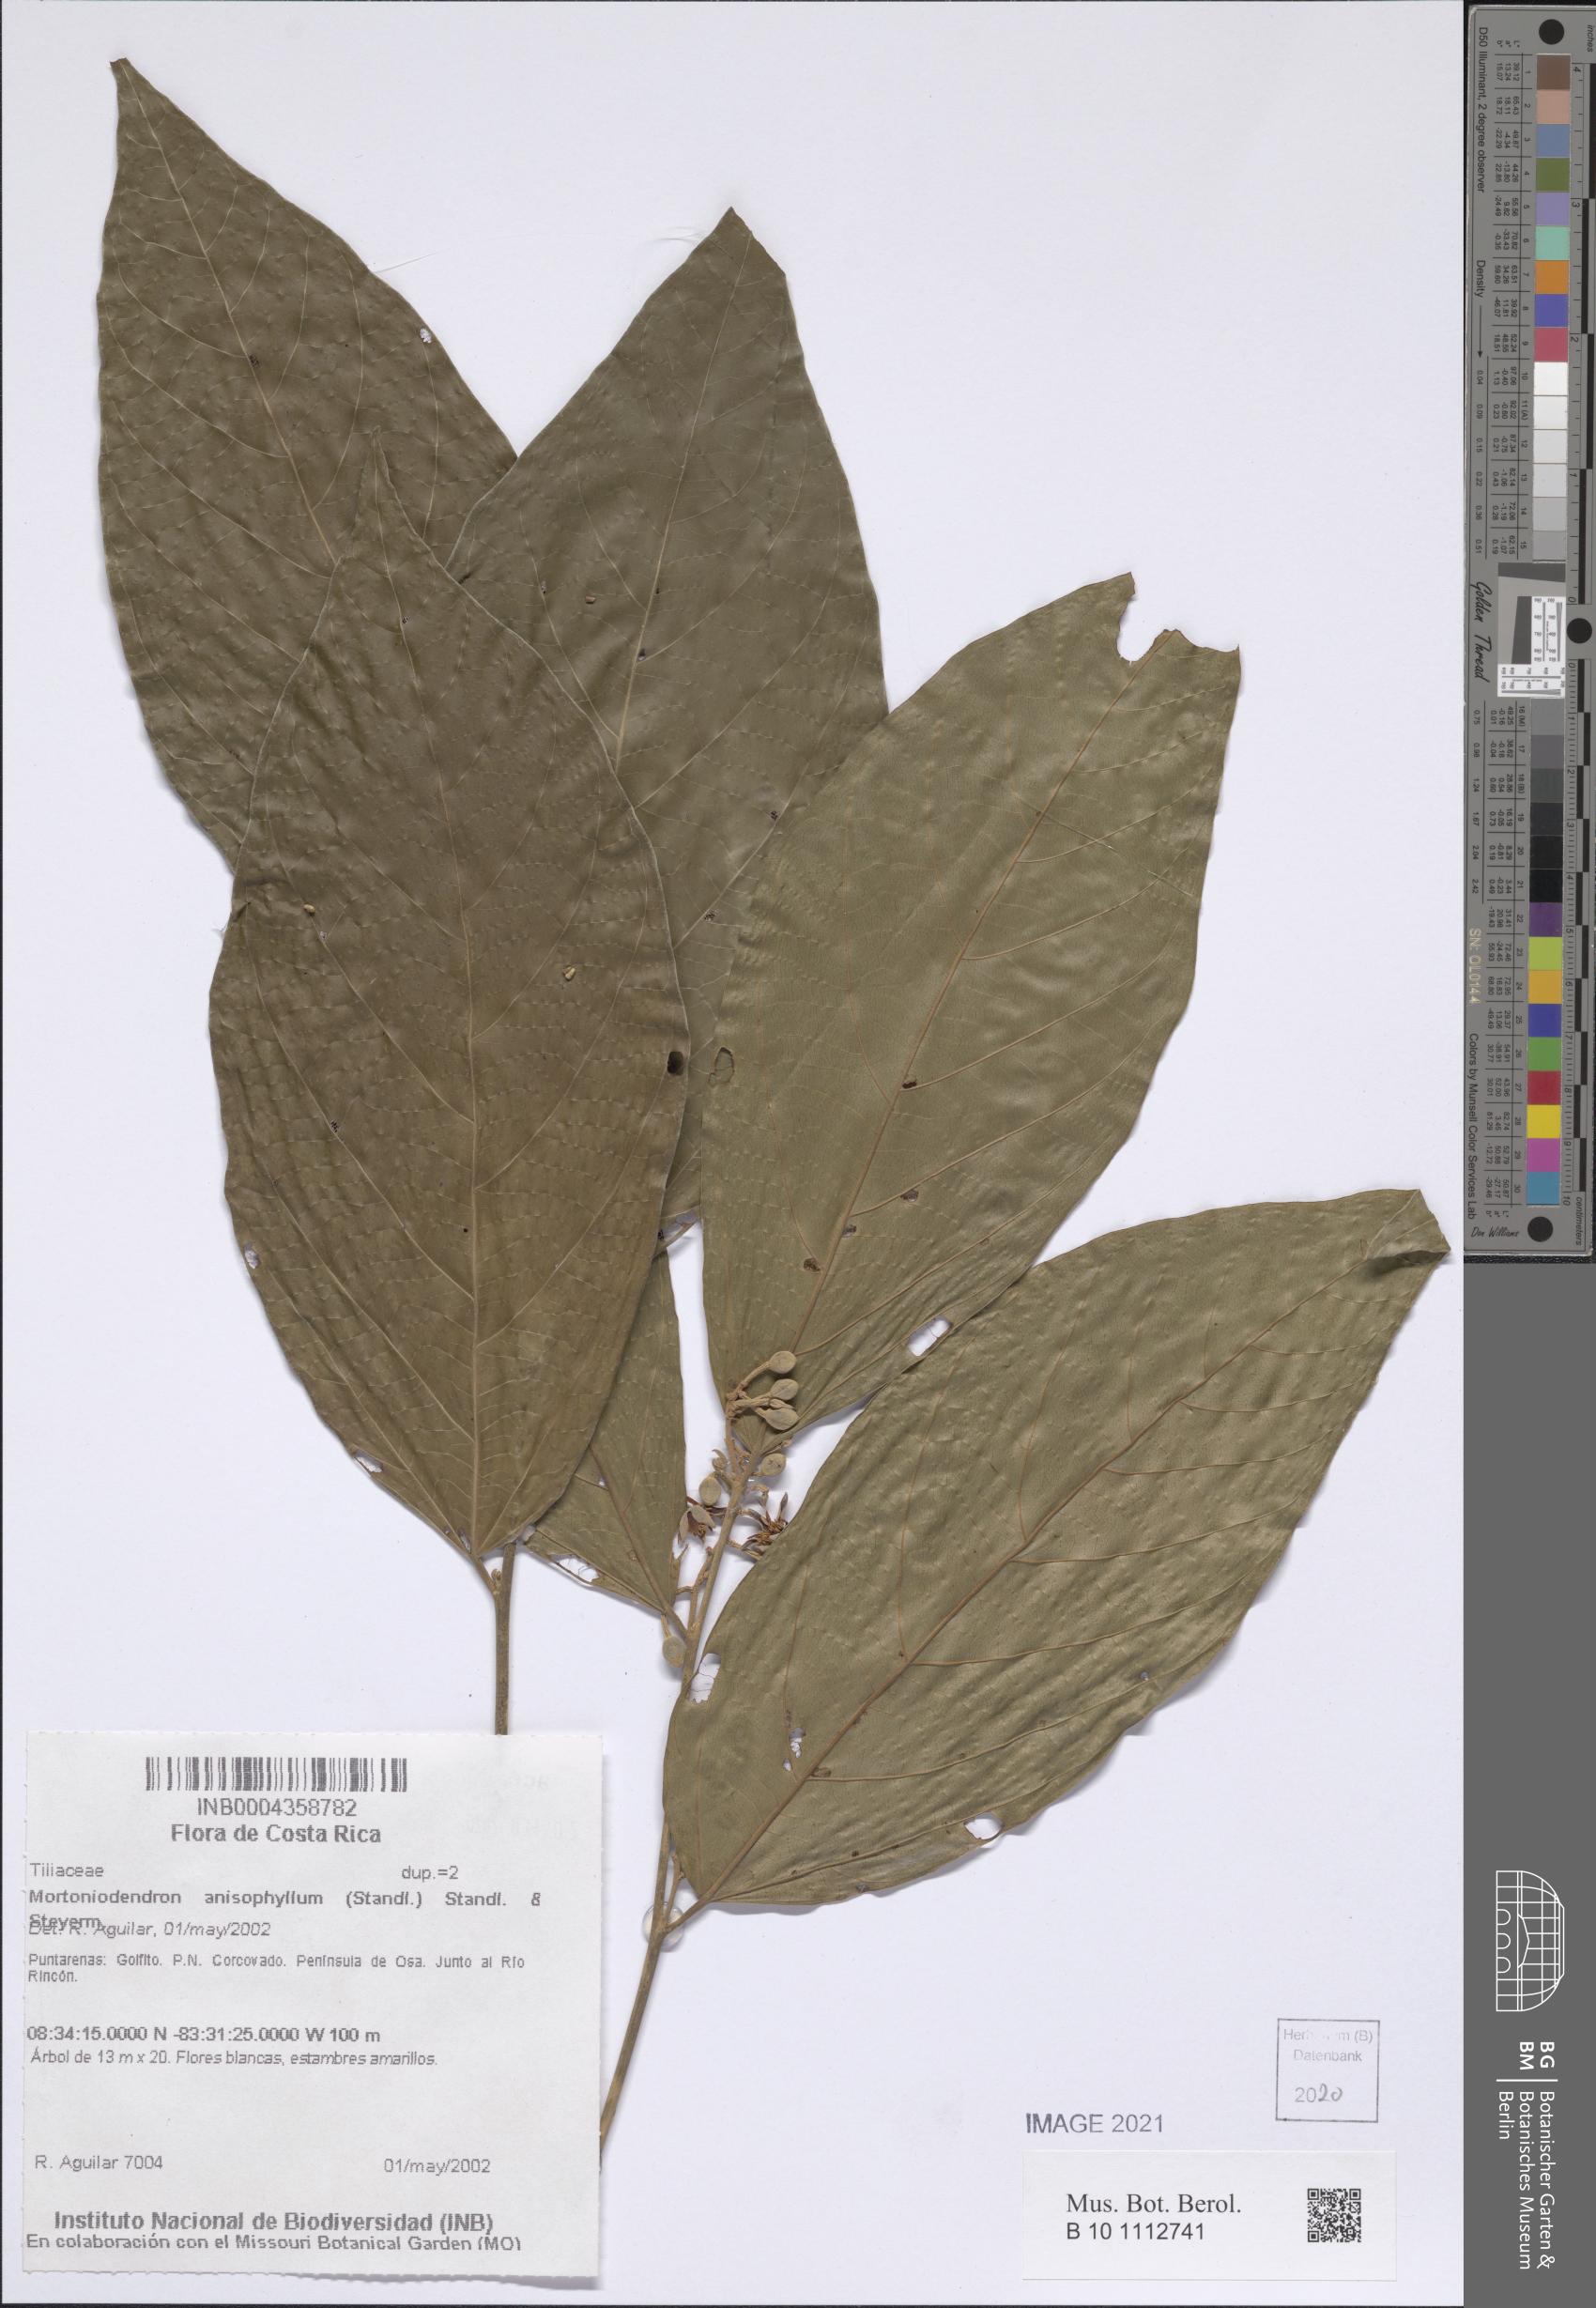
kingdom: Plantae
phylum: Tracheophyta
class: Magnoliopsida
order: Malvales
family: Malvaceae
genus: Mortoniodendron
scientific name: Mortoniodendron anisophyllum
